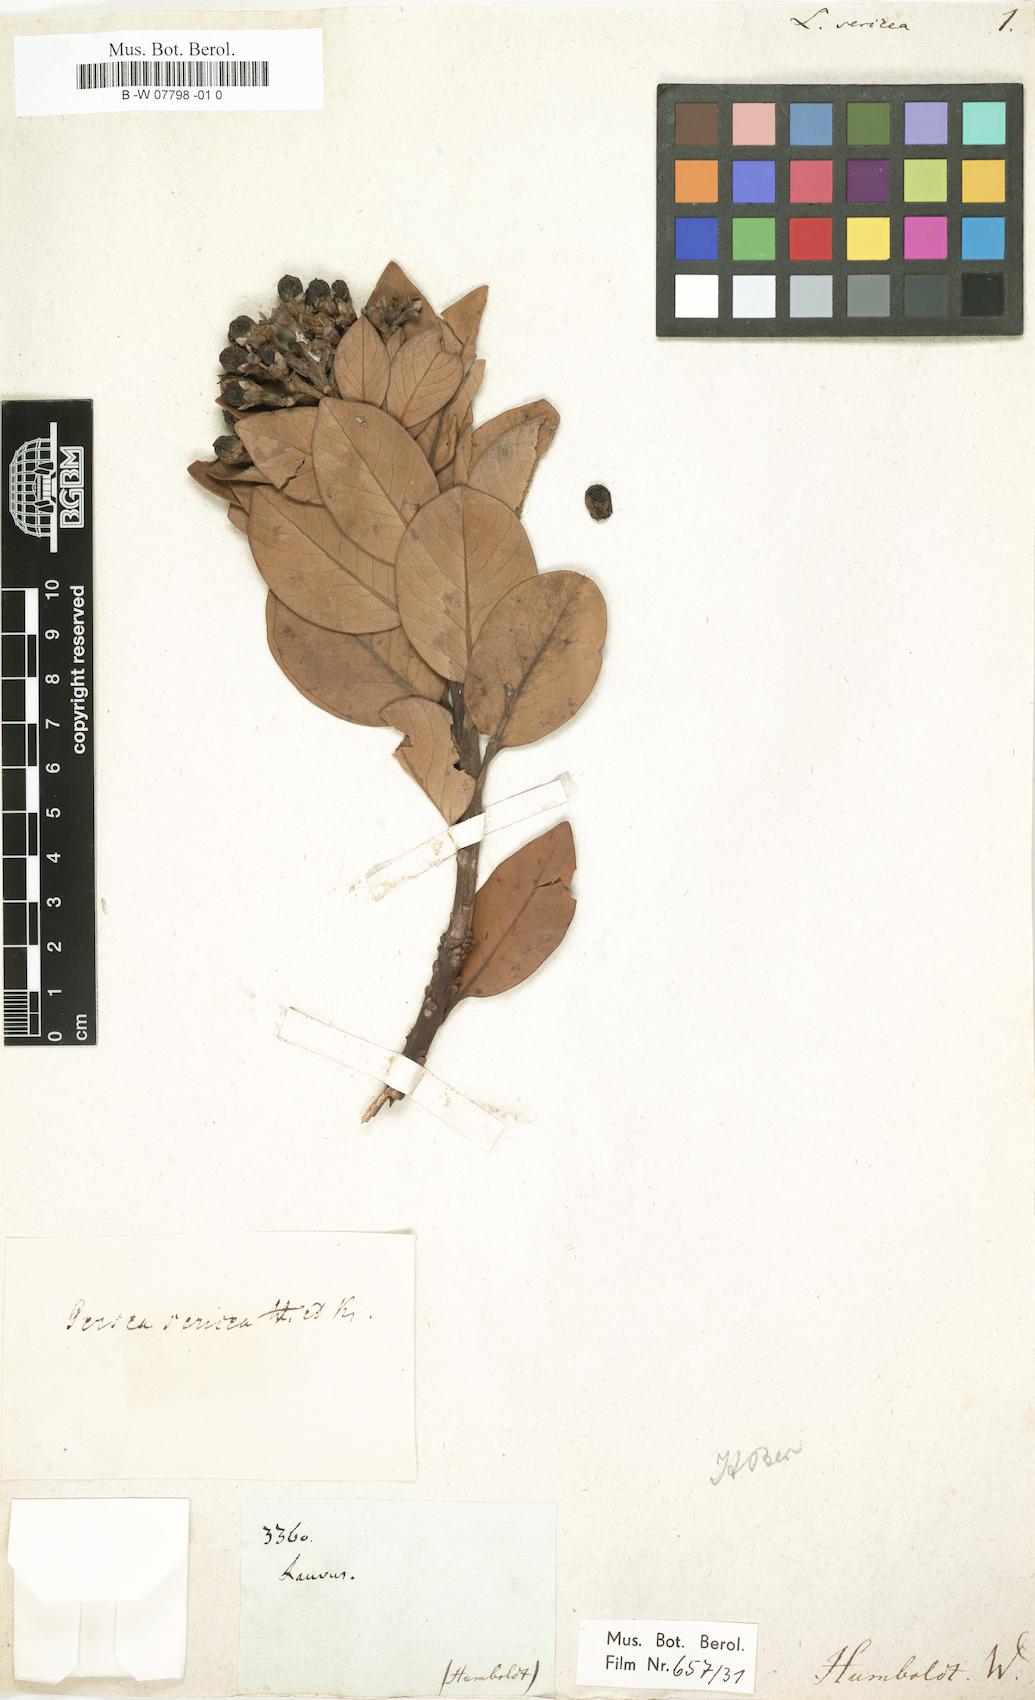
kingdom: Plantae
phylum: Tracheophyta
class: Magnoliopsida
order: Laurales
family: Lauraceae
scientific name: Lauraceae
